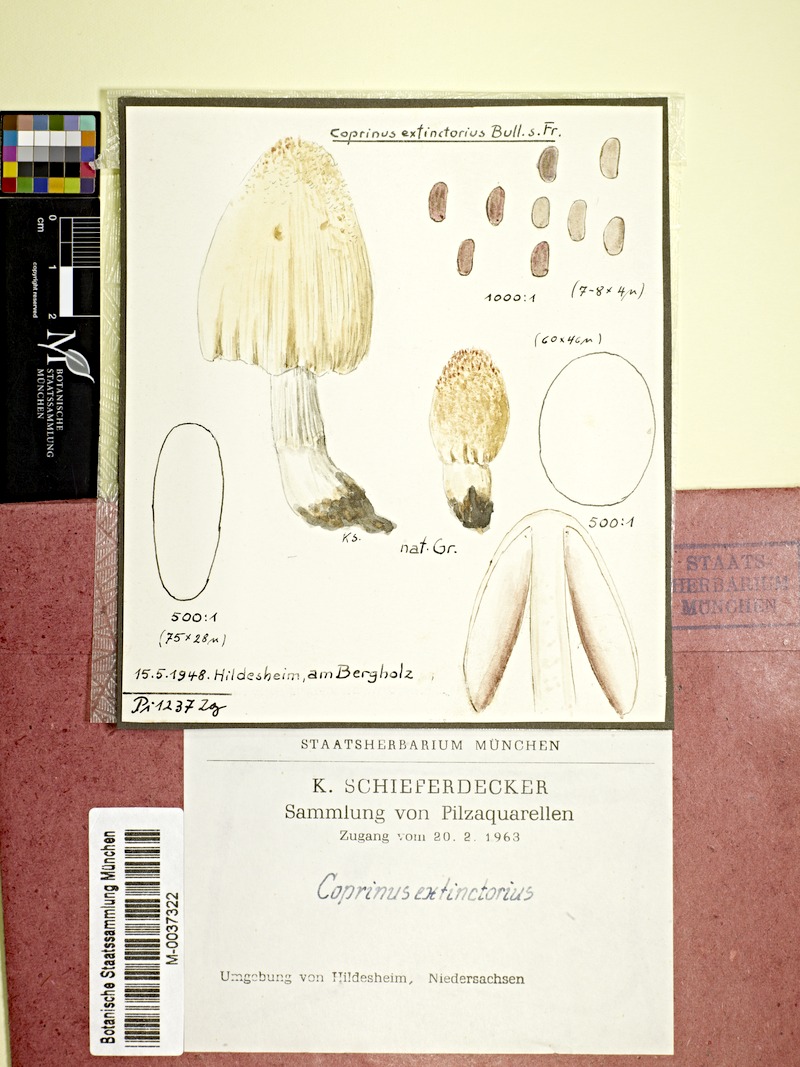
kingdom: Fungi
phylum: Basidiomycota
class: Agaricomycetes
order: Agaricales
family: Agaricaceae
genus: Coprinus
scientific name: Coprinus
